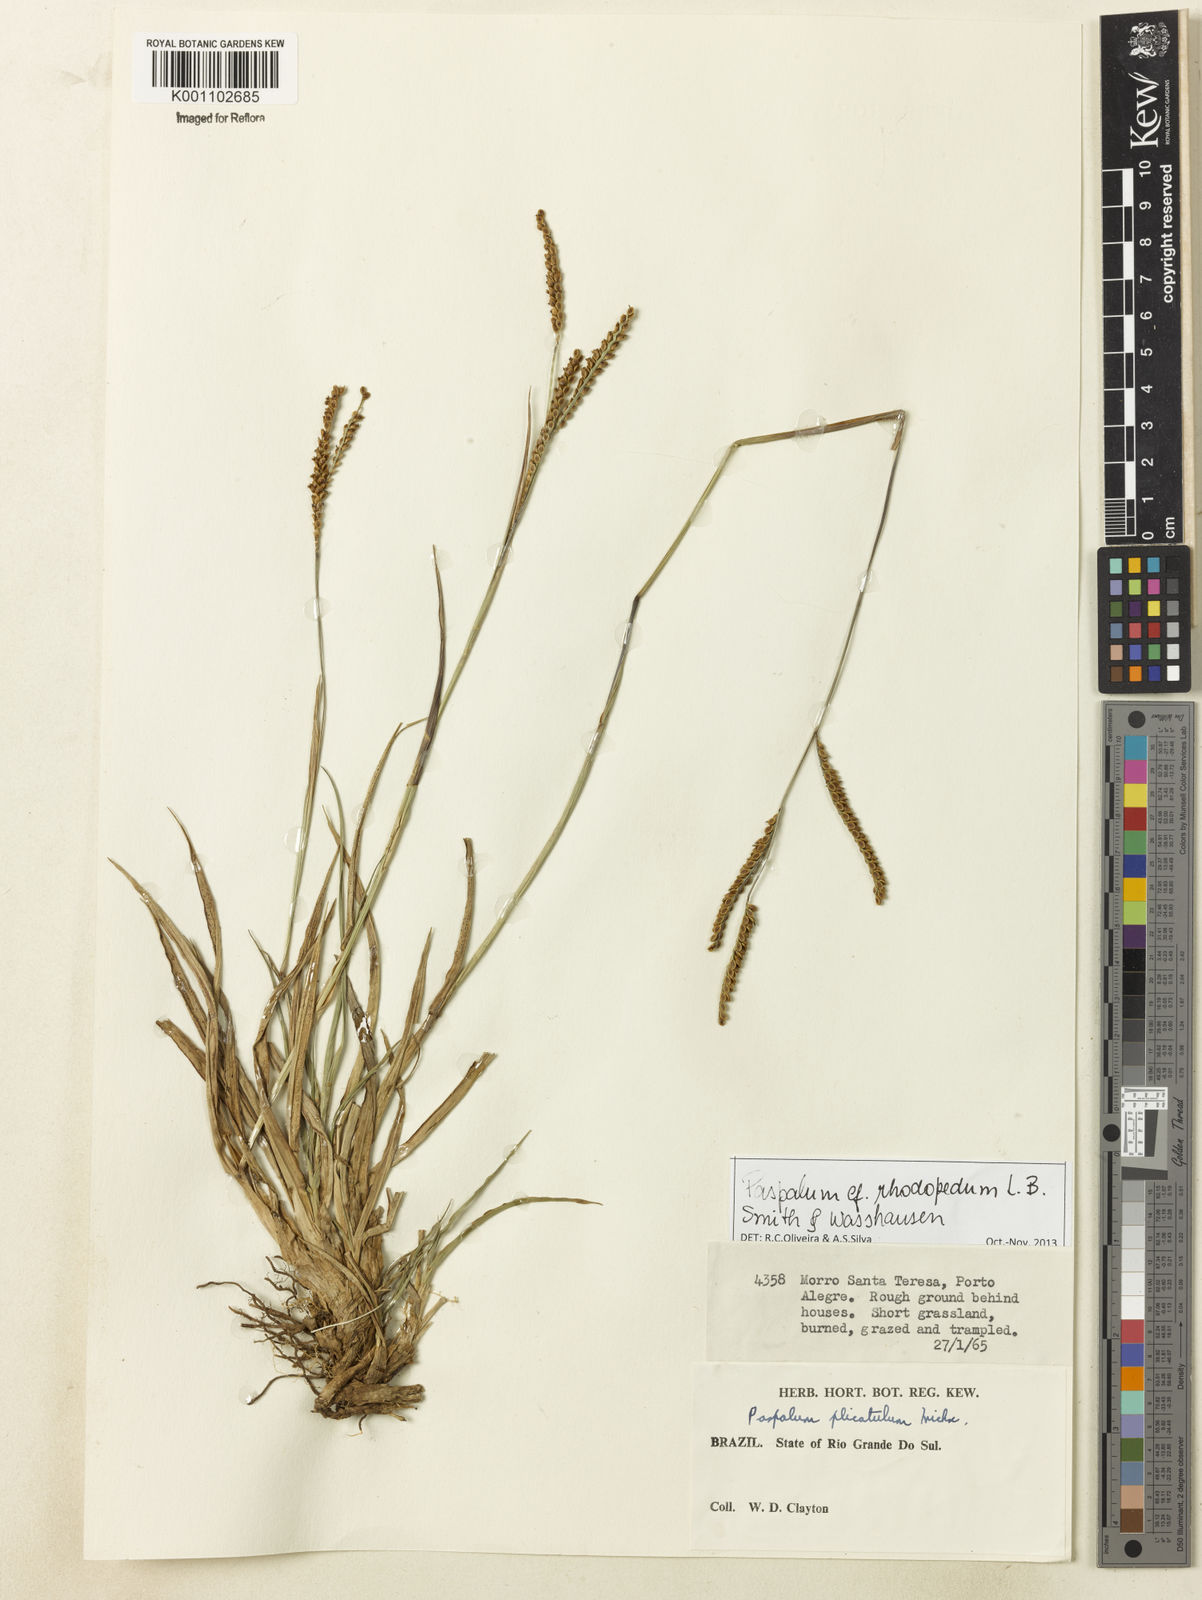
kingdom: Plantae
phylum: Tracheophyta
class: Liliopsida
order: Poales
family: Poaceae
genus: Paspalum
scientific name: Paspalum guenoarum
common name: Wintergreen paspalum
